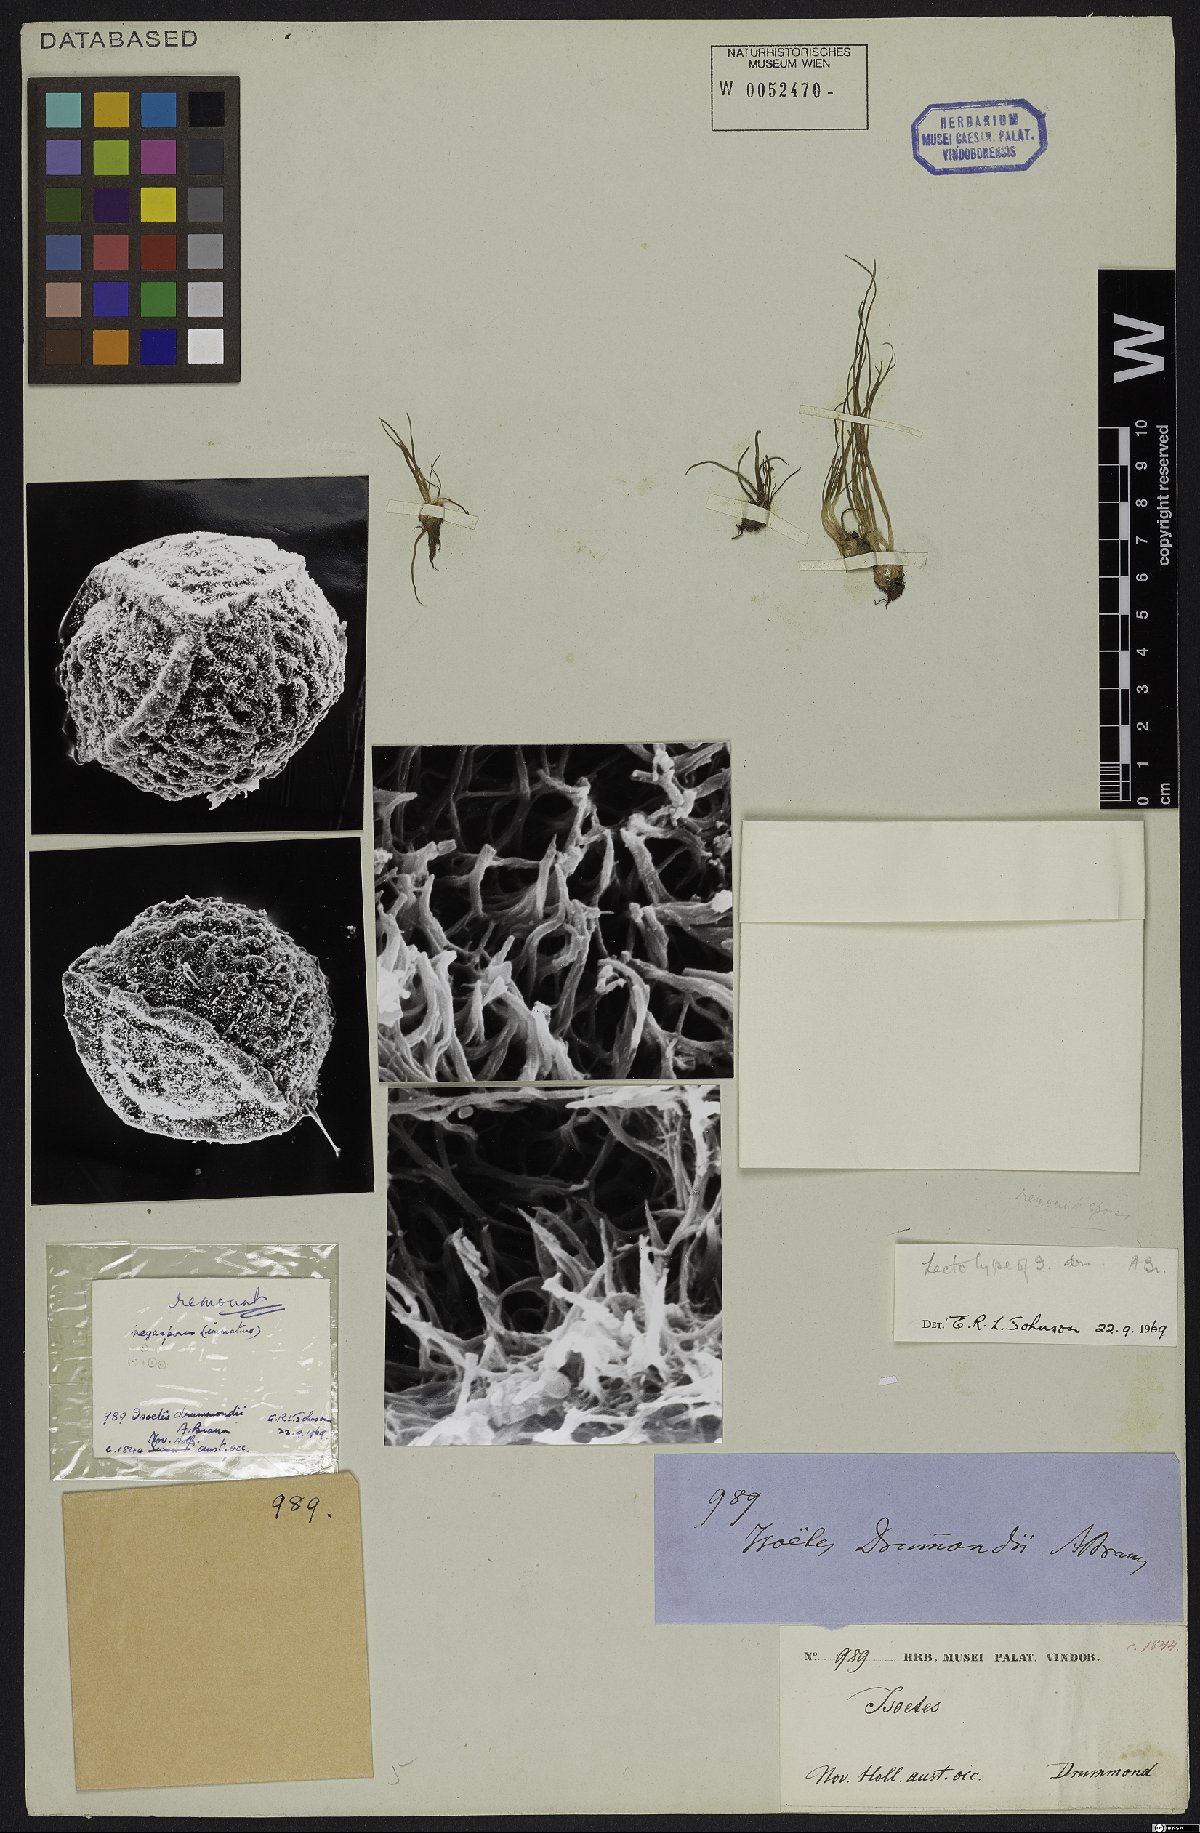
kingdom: Plantae
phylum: Tracheophyta
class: Lycopodiopsida
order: Isoetales
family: Isoetaceae
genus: Isoetes
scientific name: Isoetes drummondii
